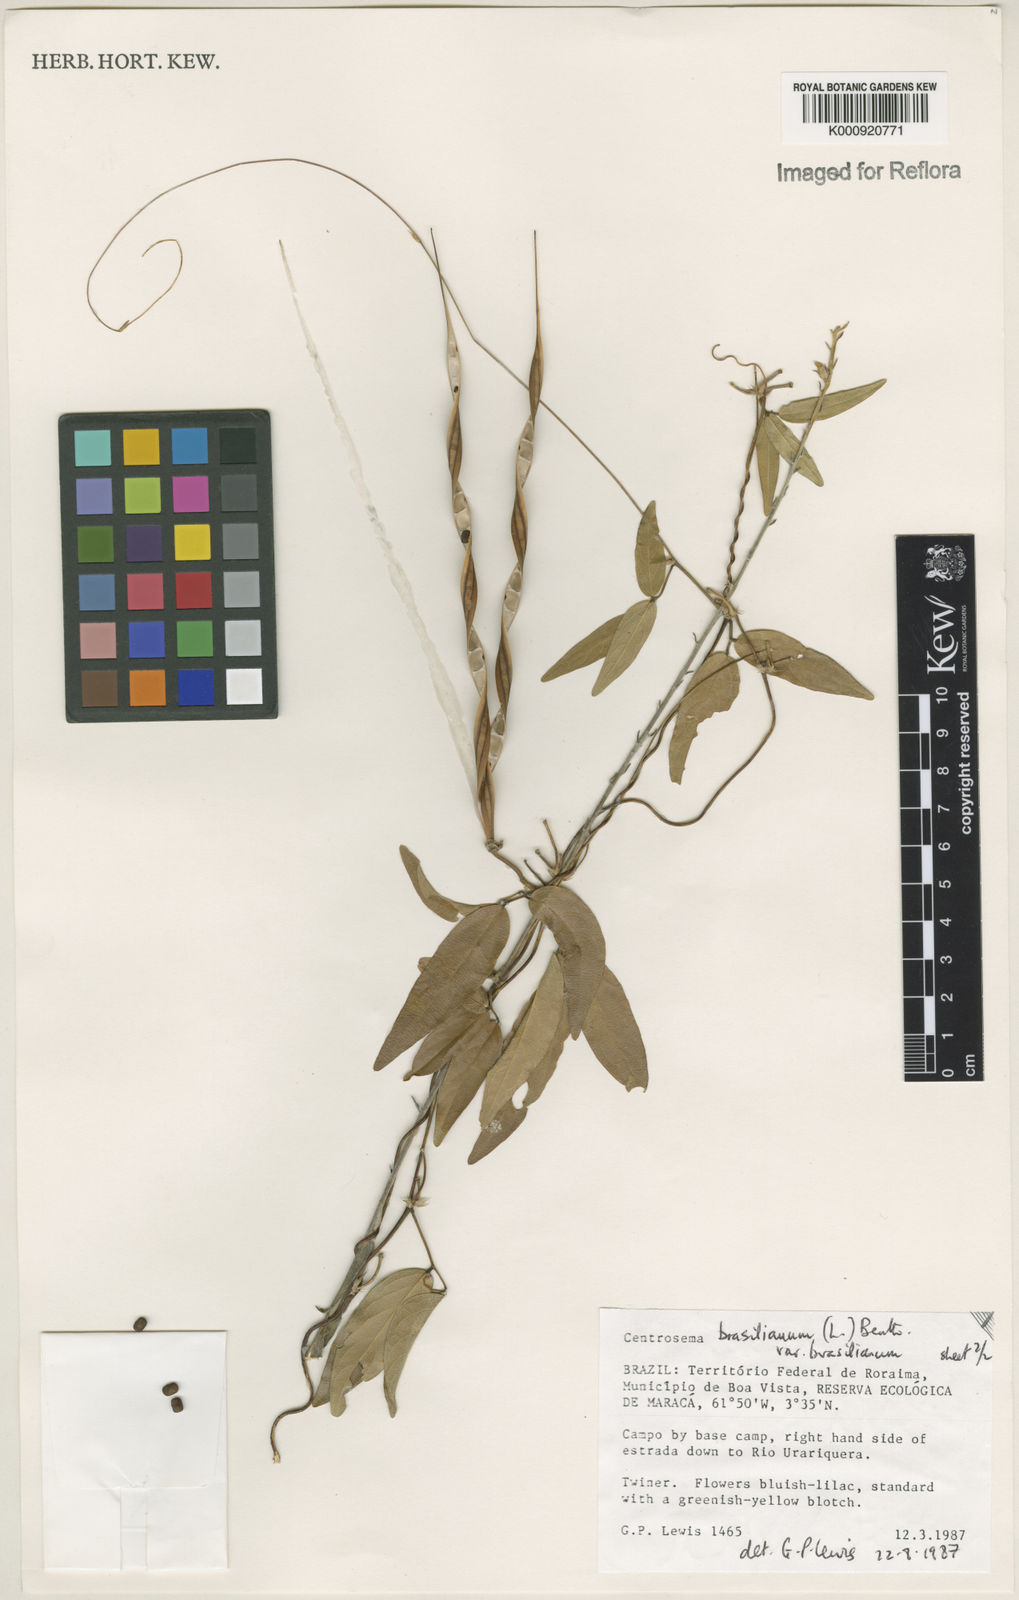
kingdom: Plantae
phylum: Tracheophyta
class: Magnoliopsida
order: Fabales
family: Fabaceae
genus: Centrosema
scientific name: Centrosema brasilianum
